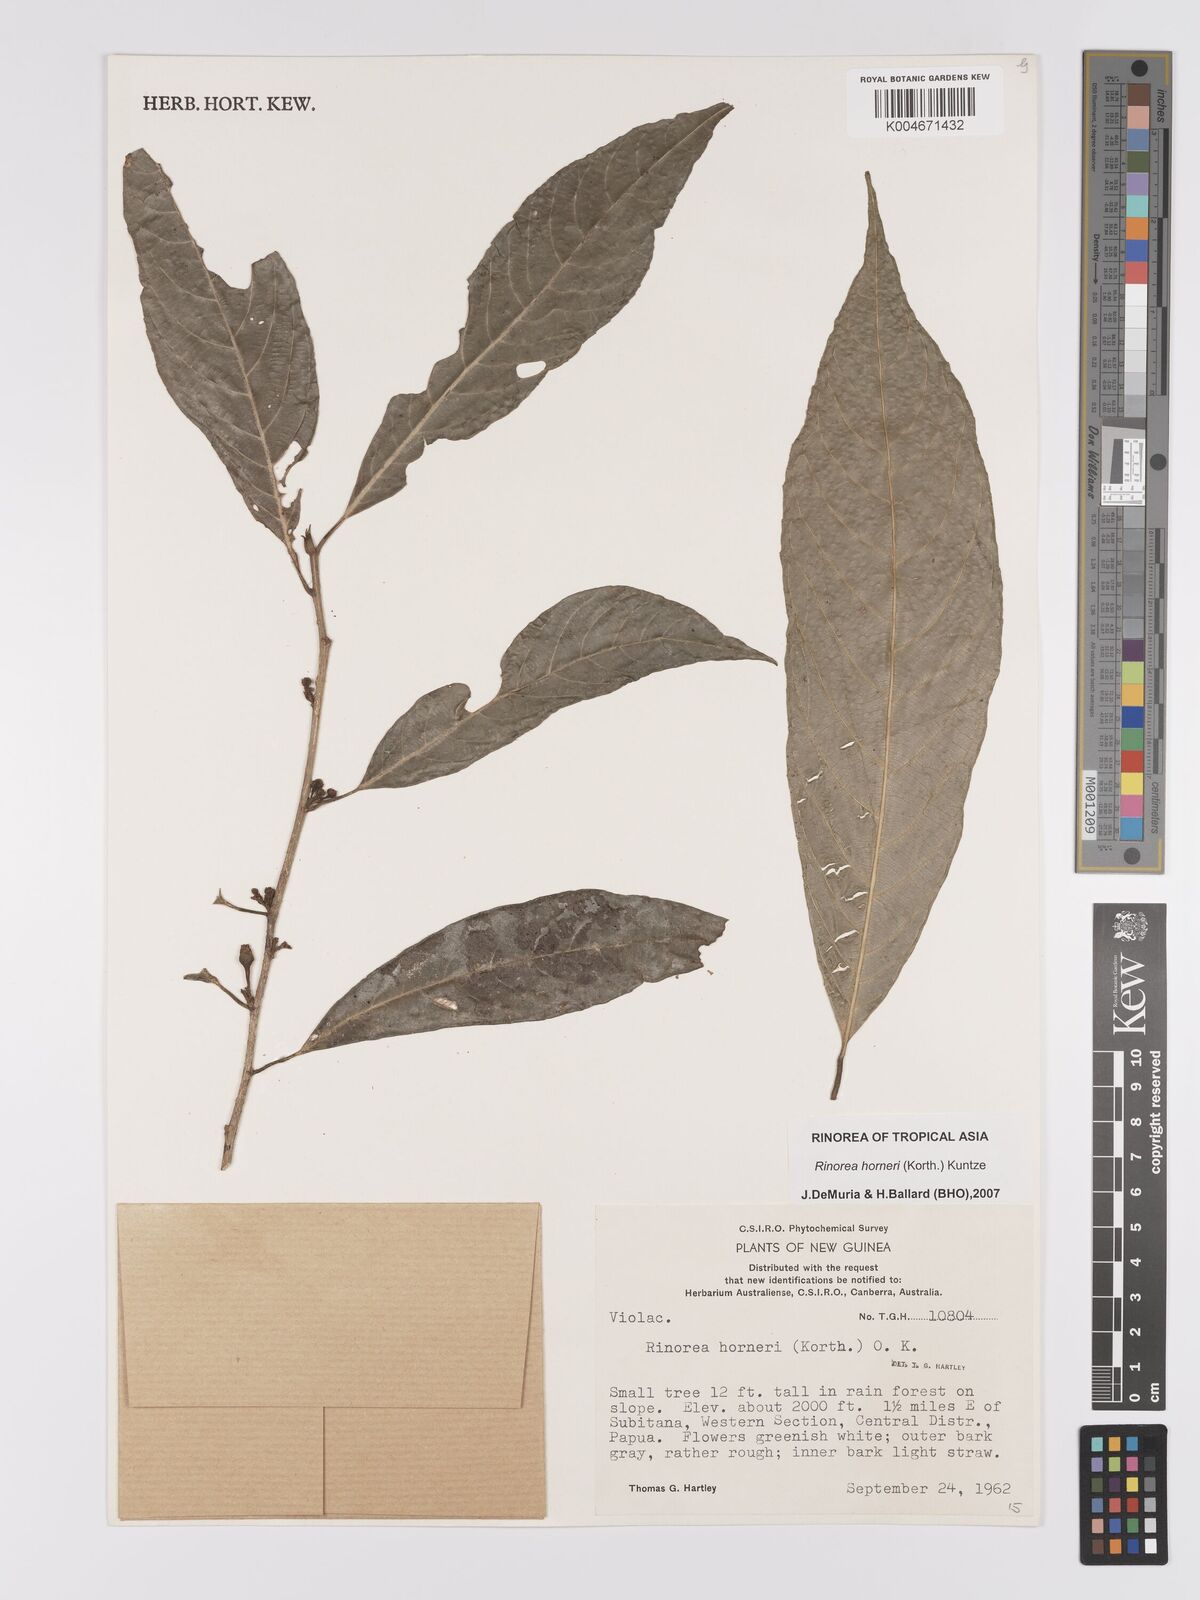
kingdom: Plantae
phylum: Tracheophyta
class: Magnoliopsida
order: Malpighiales
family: Violaceae
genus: Rinorea
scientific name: Rinorea horneri
